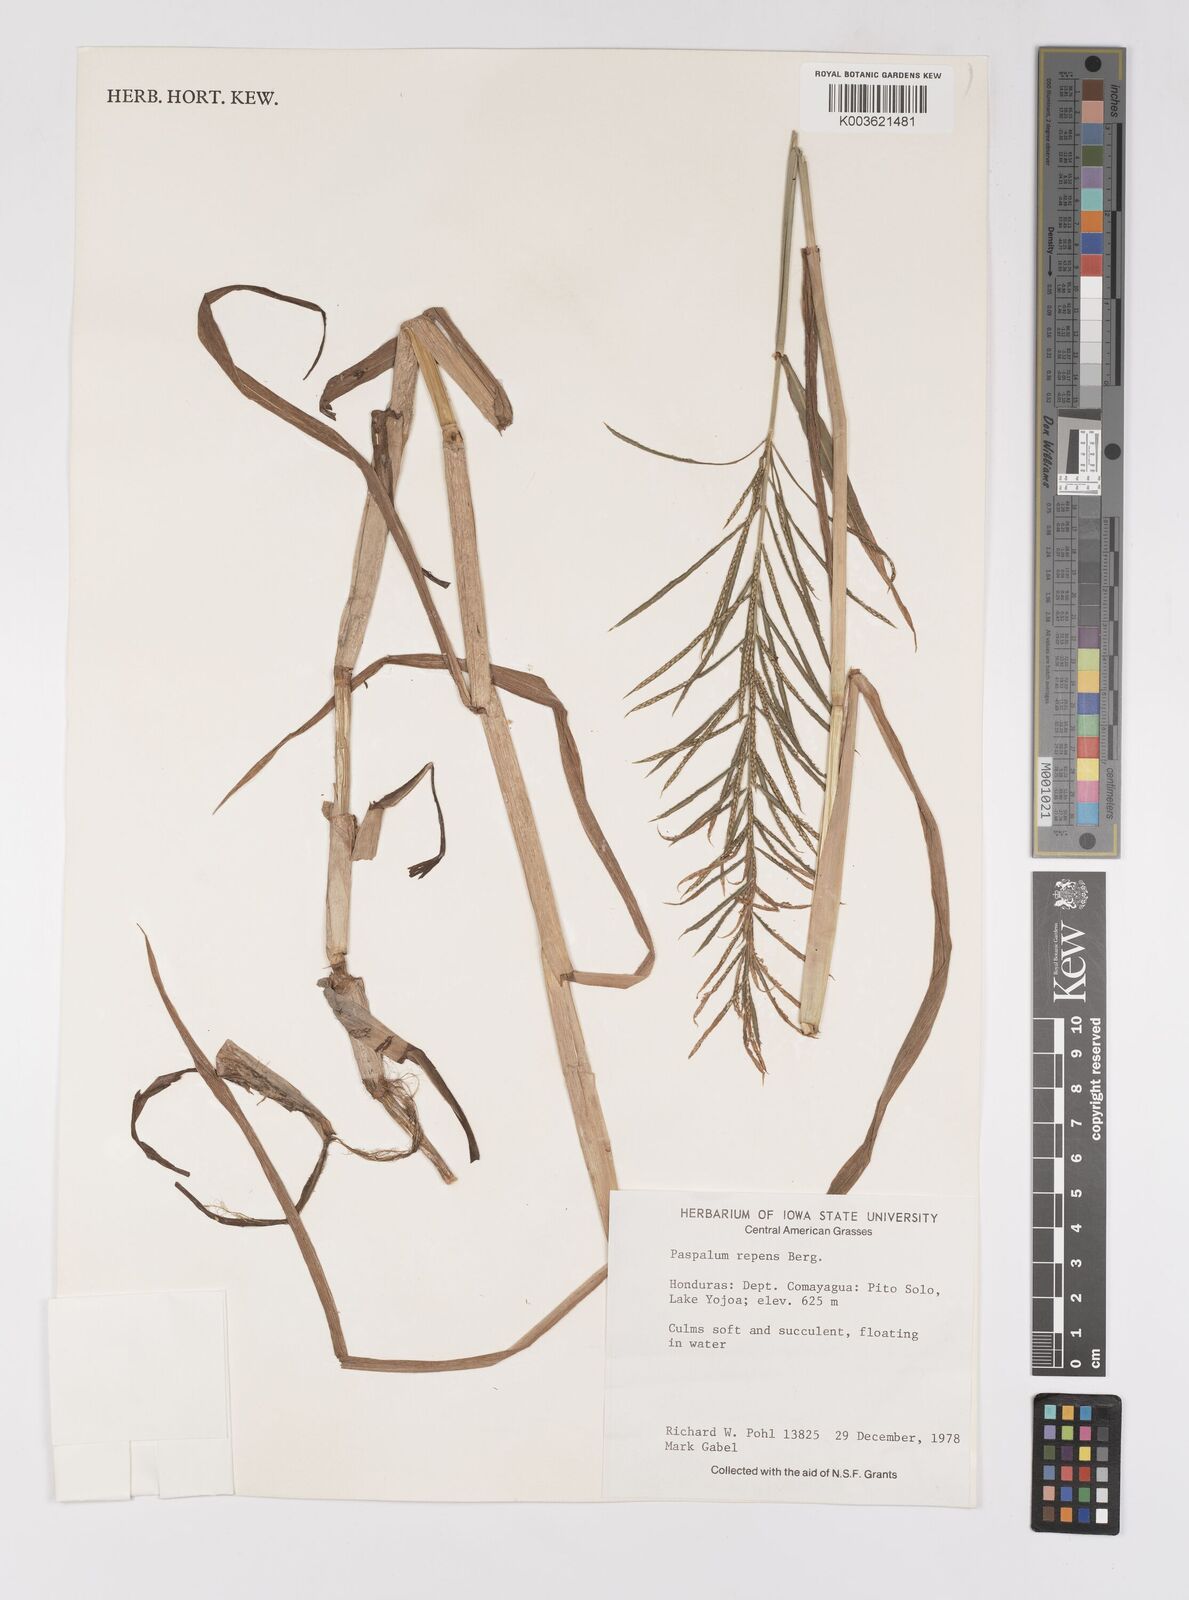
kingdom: Plantae
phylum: Tracheophyta
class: Liliopsida
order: Poales
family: Poaceae
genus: Paspalum
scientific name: Paspalum repens
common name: Water paspalum
